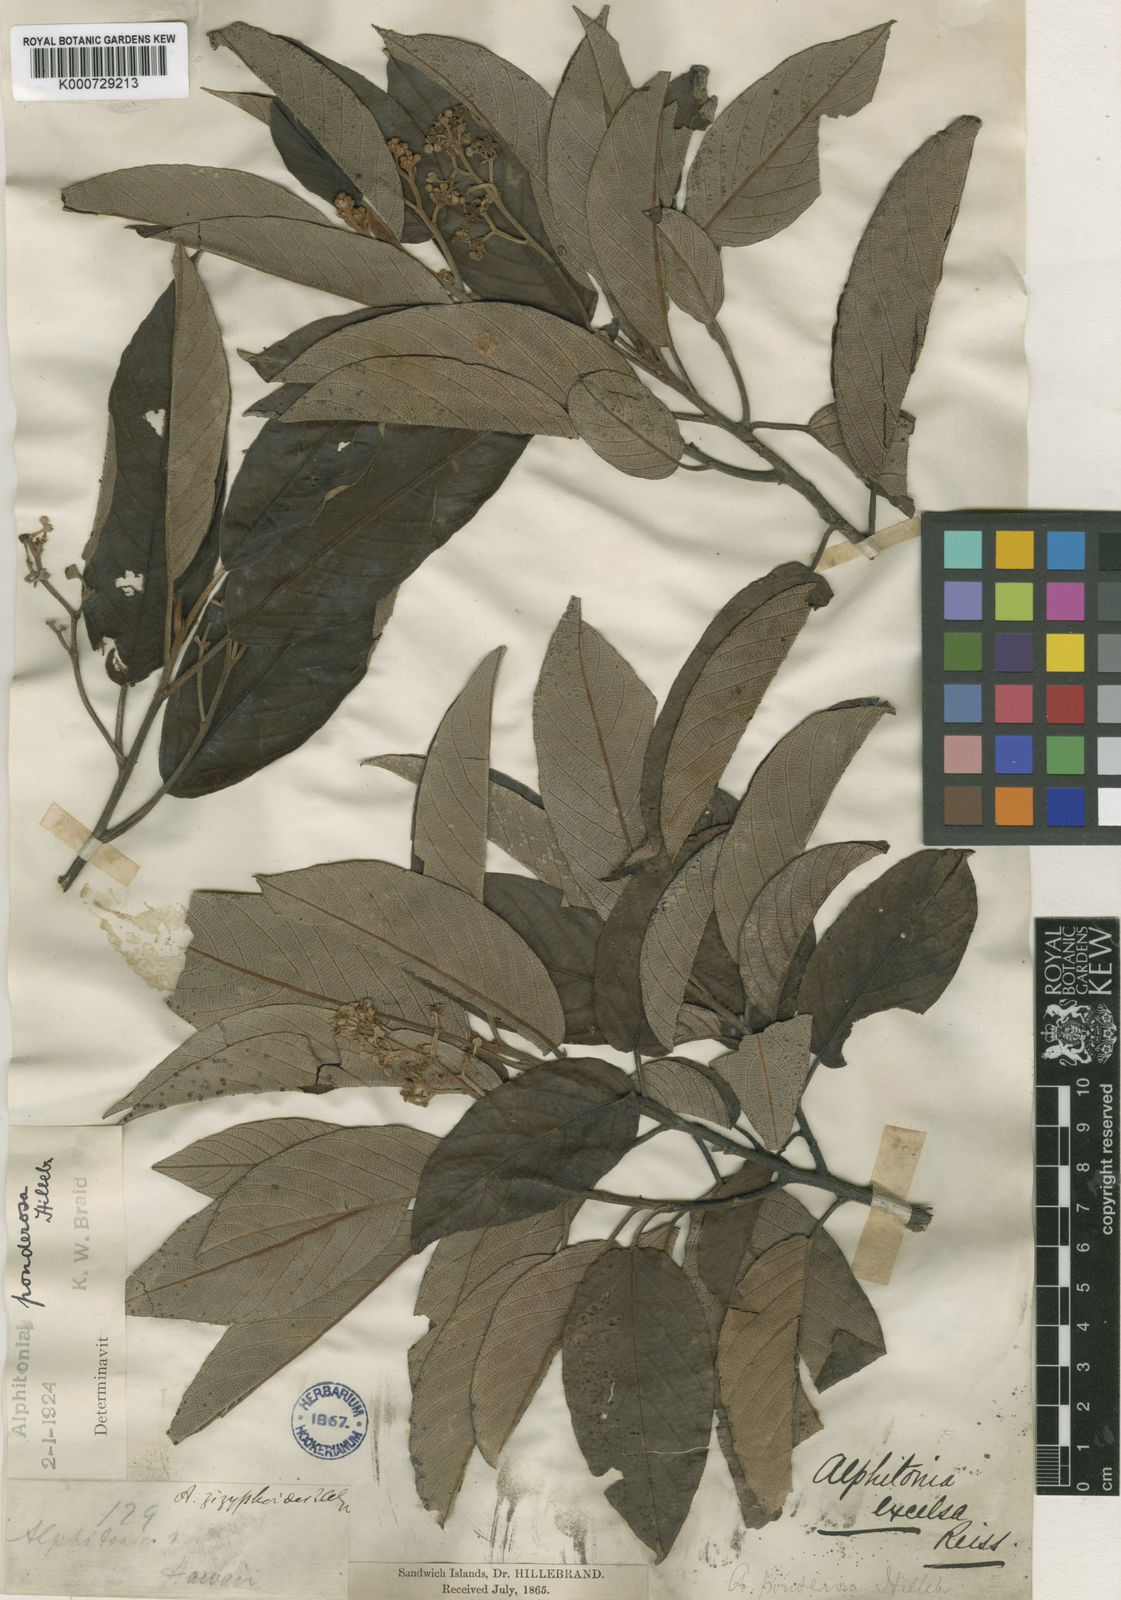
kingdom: Plantae
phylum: Tracheophyta
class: Magnoliopsida
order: Rosales
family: Rhamnaceae
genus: Alphitonia
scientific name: Alphitonia ponderosa
